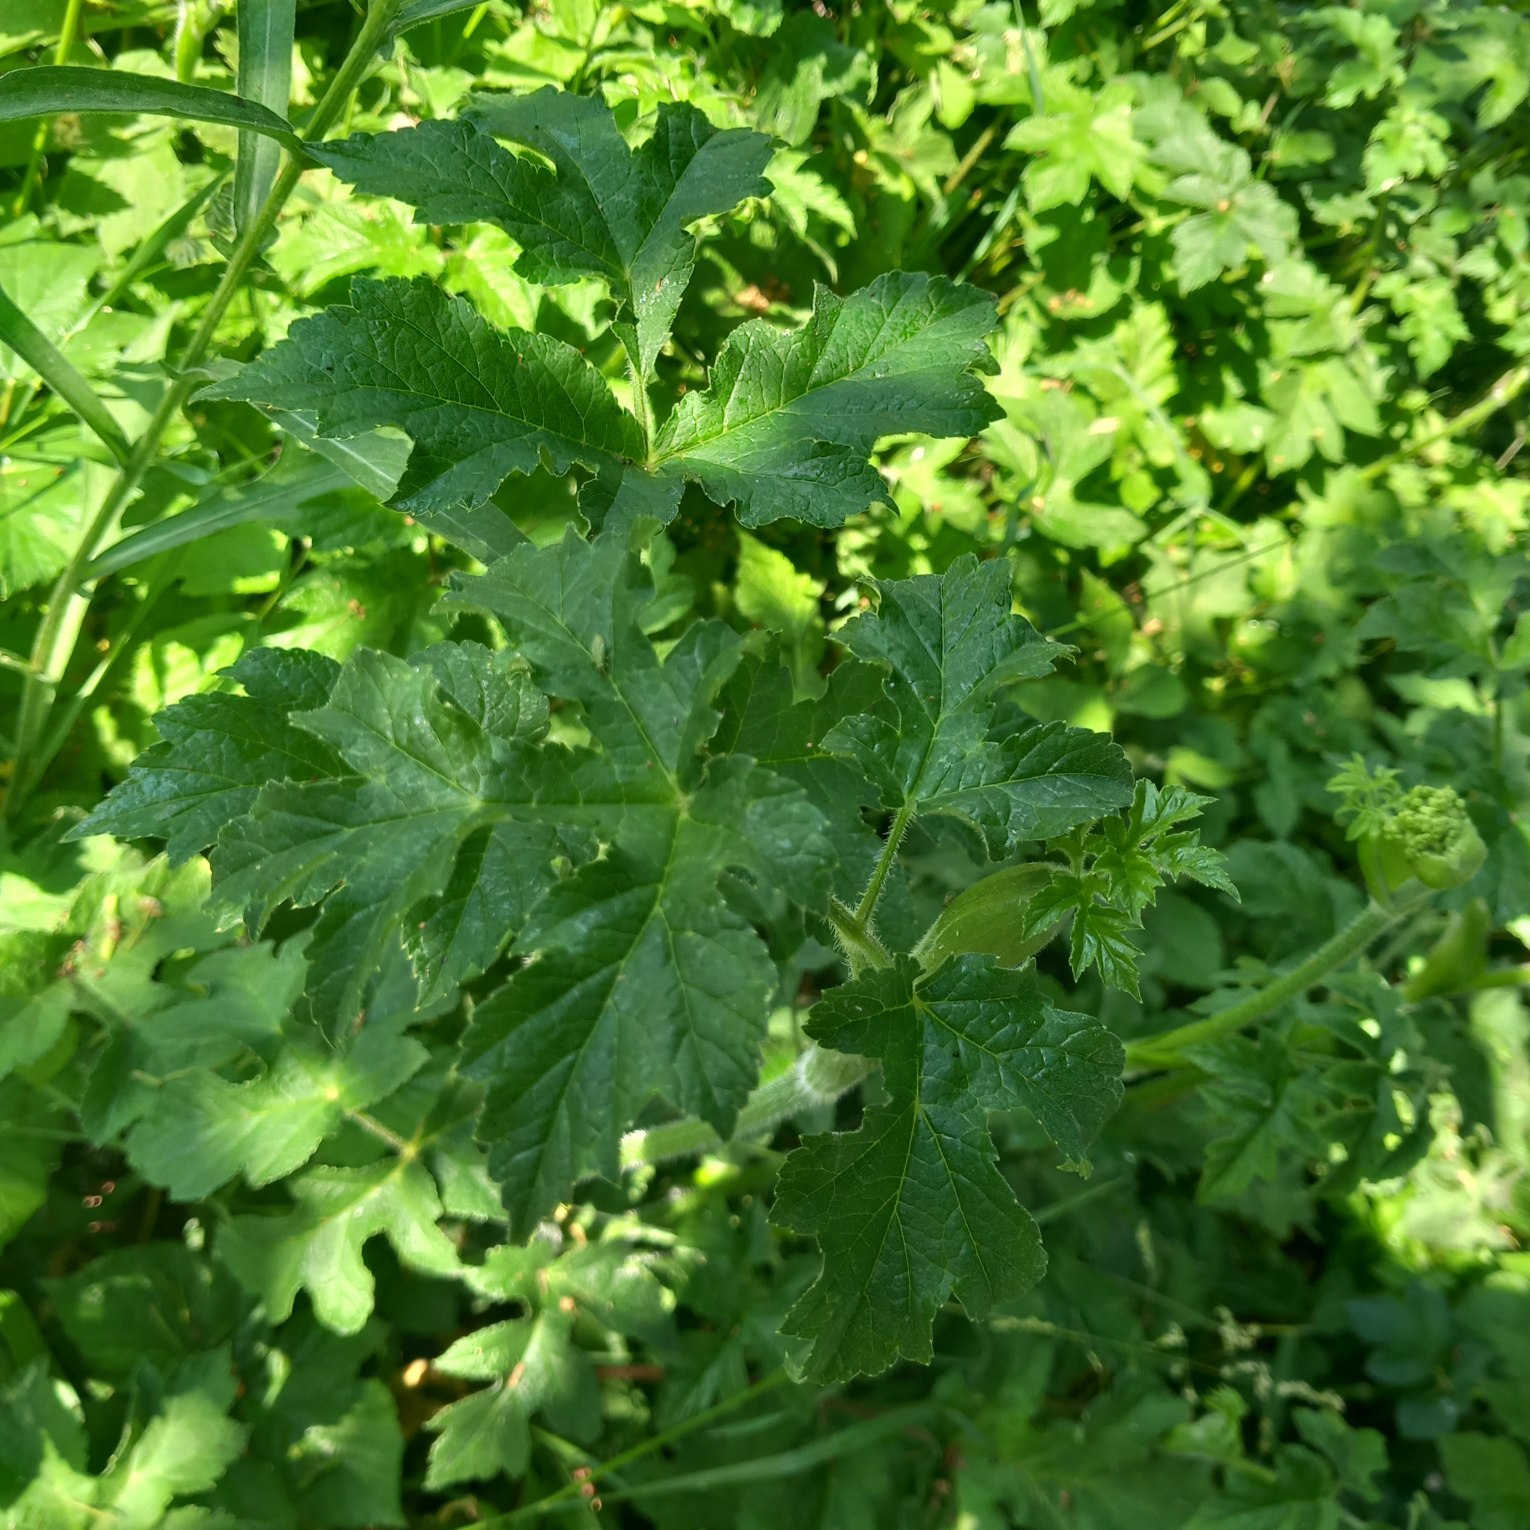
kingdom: Plantae
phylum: Tracheophyta
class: Magnoliopsida
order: Apiales
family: Apiaceae
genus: Heracleum
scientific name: Heracleum sphondylium
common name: Almindelig bjørneklo
